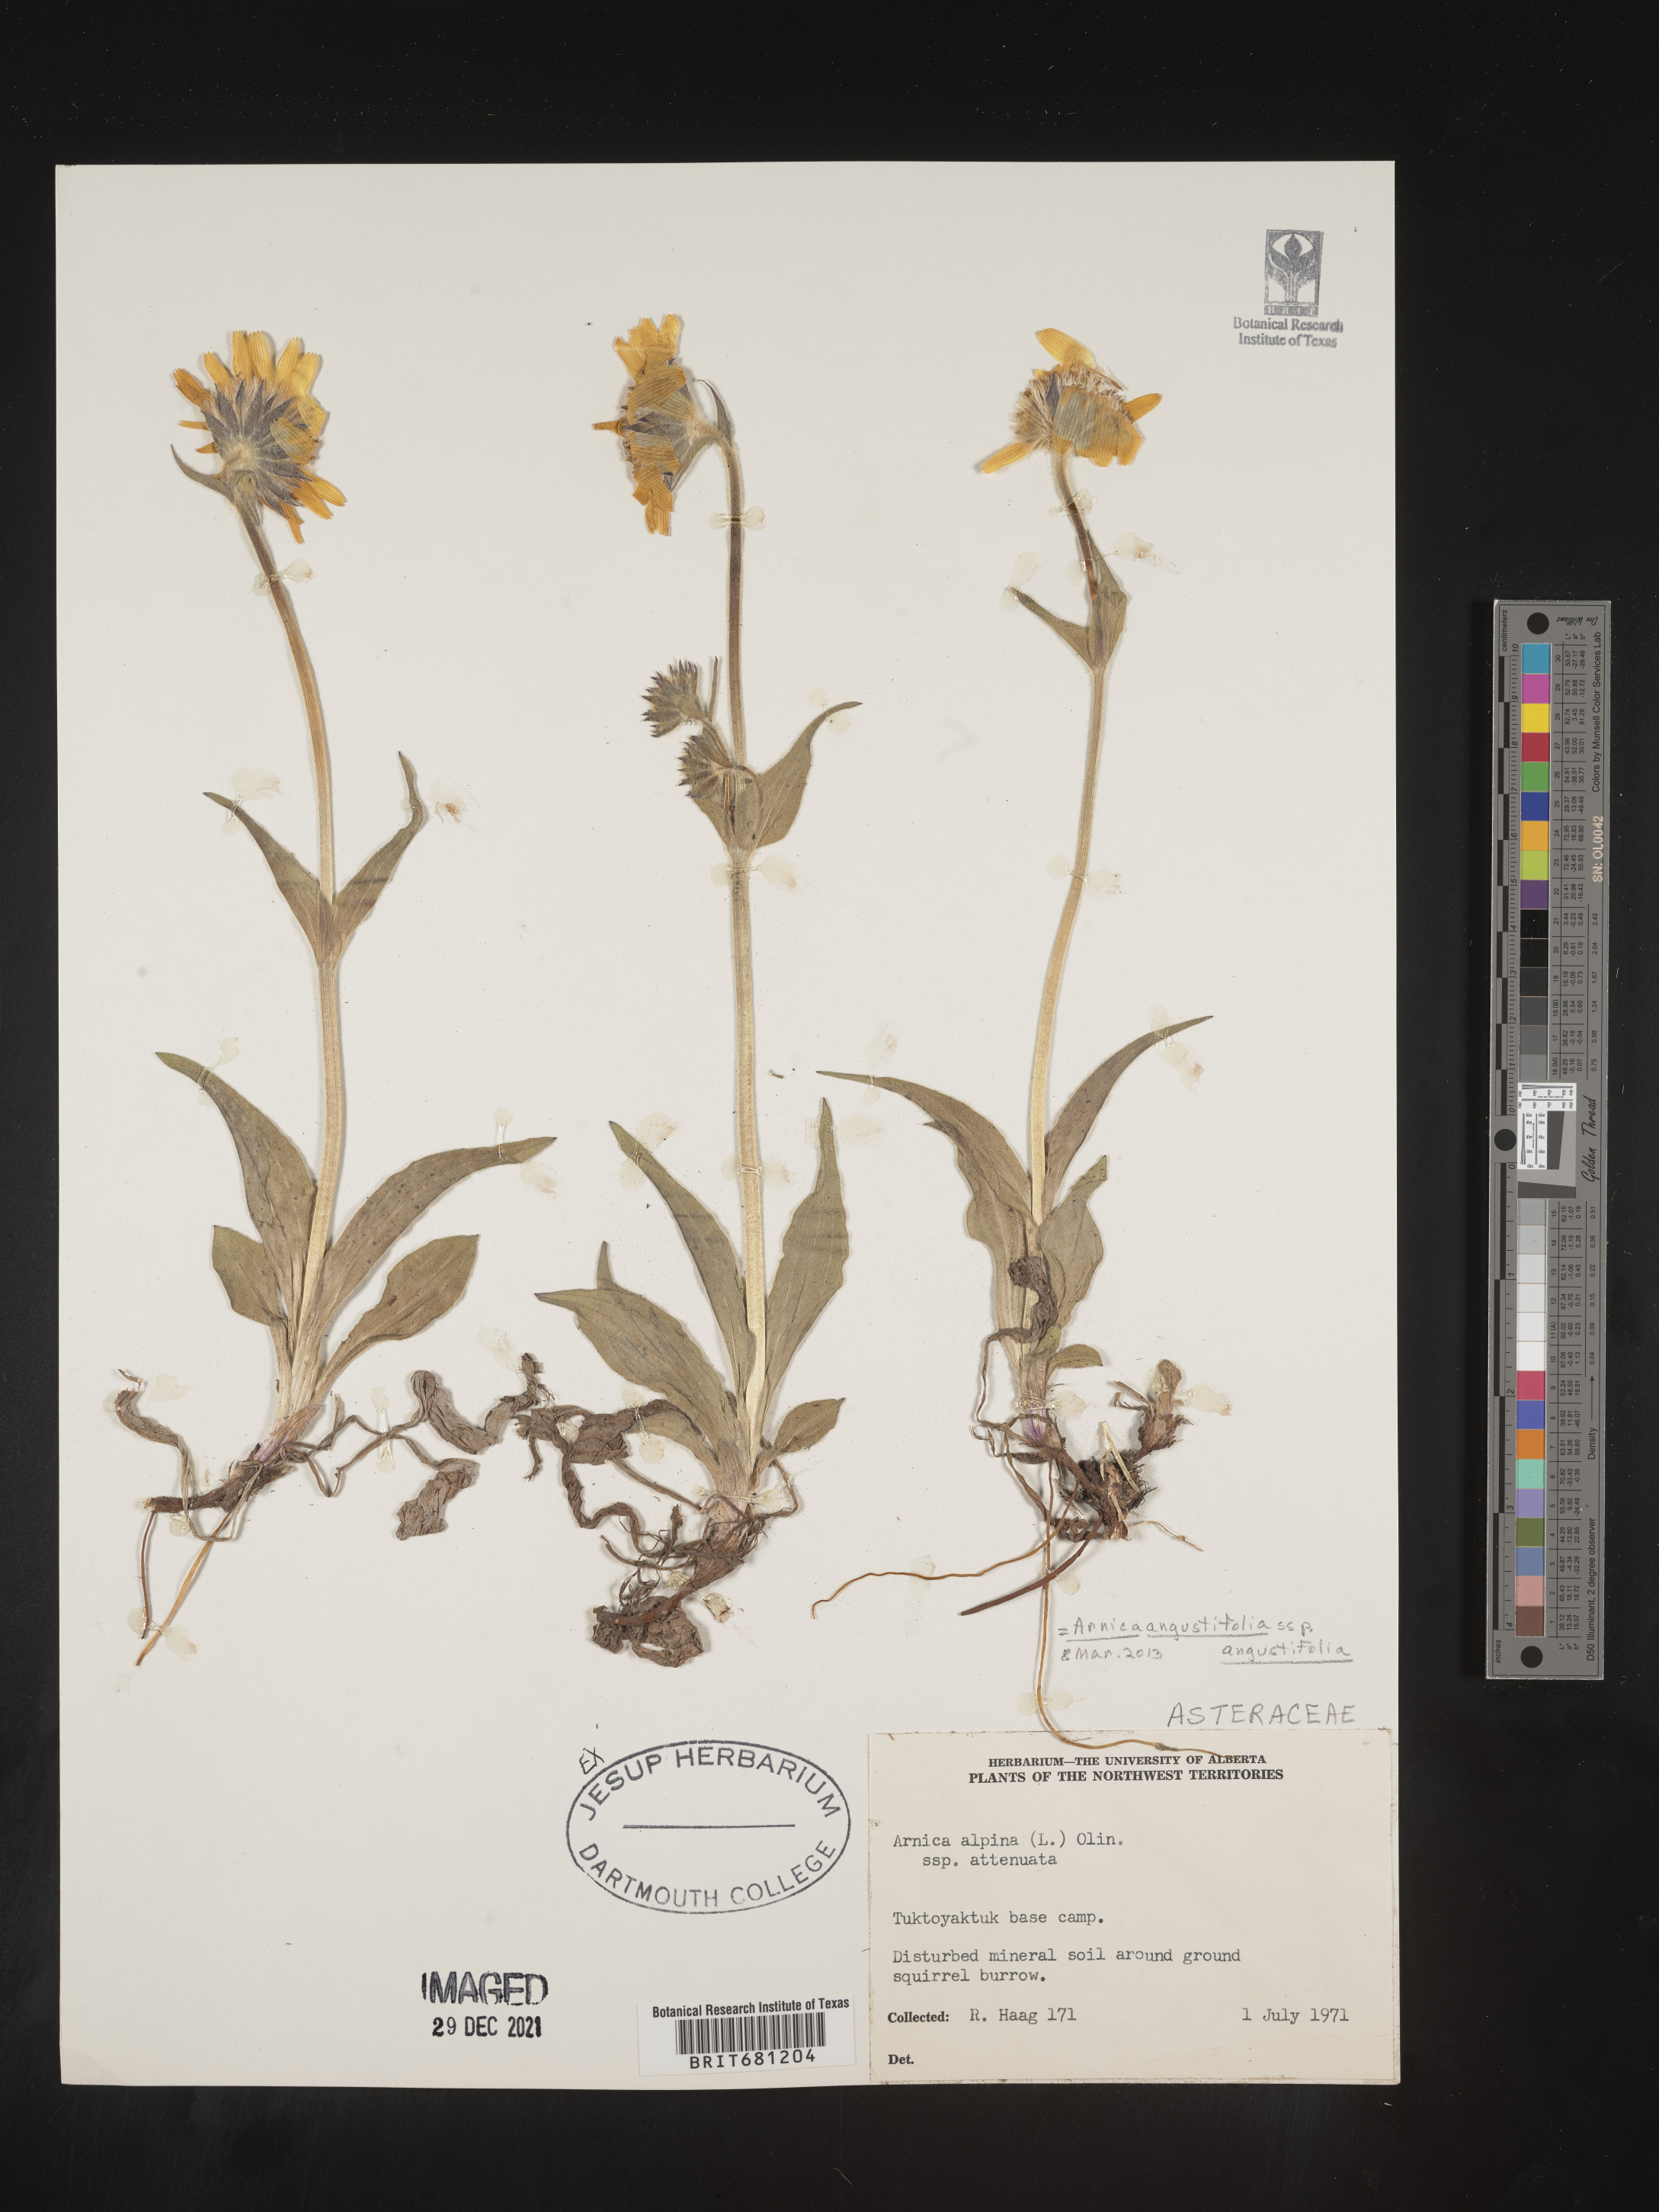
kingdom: Plantae
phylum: Tracheophyta
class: Magnoliopsida
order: Asterales
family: Asteraceae
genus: Arnica
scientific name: Arnica angustifolia
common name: Arctic arnica
